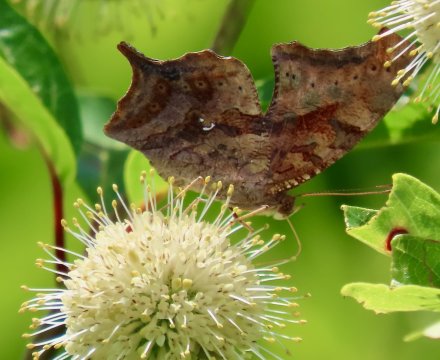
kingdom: Animalia
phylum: Arthropoda
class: Insecta
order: Lepidoptera
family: Nymphalidae
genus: Polygonia
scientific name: Polygonia interrogationis
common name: Question Mark
